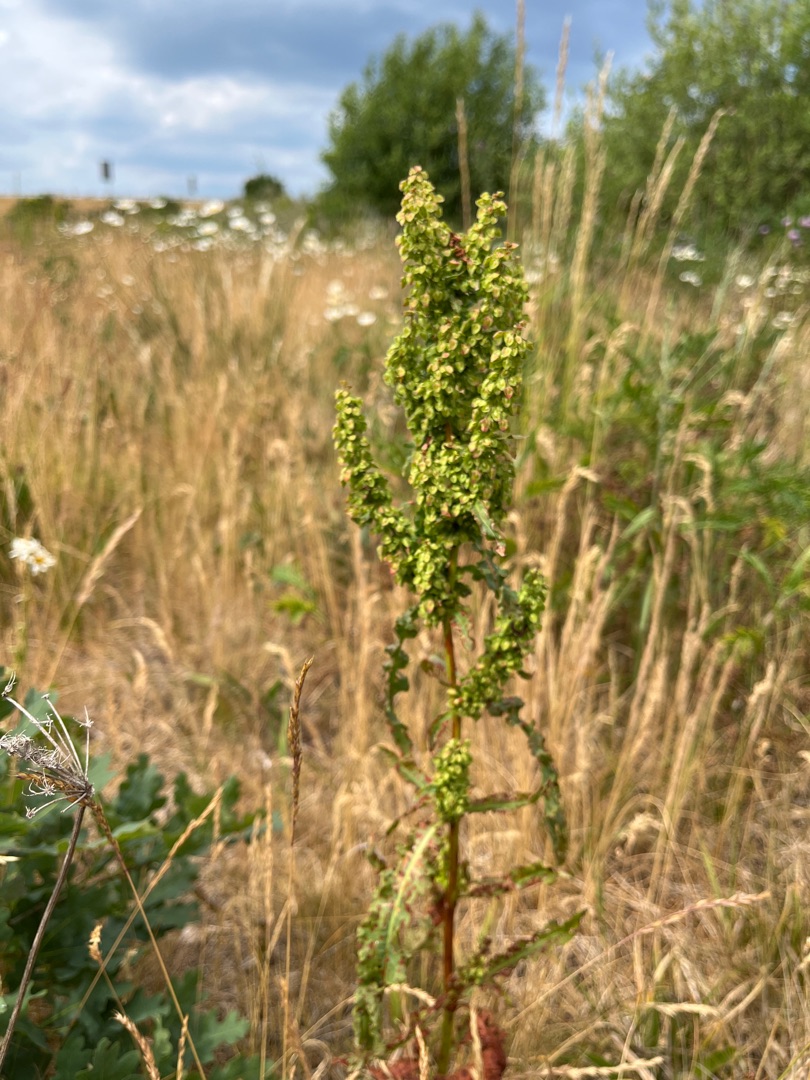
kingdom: Plantae
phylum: Tracheophyta
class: Magnoliopsida
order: Caryophyllales
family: Polygonaceae
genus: Rumex
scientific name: Rumex crispus
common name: Kruset skræppe
